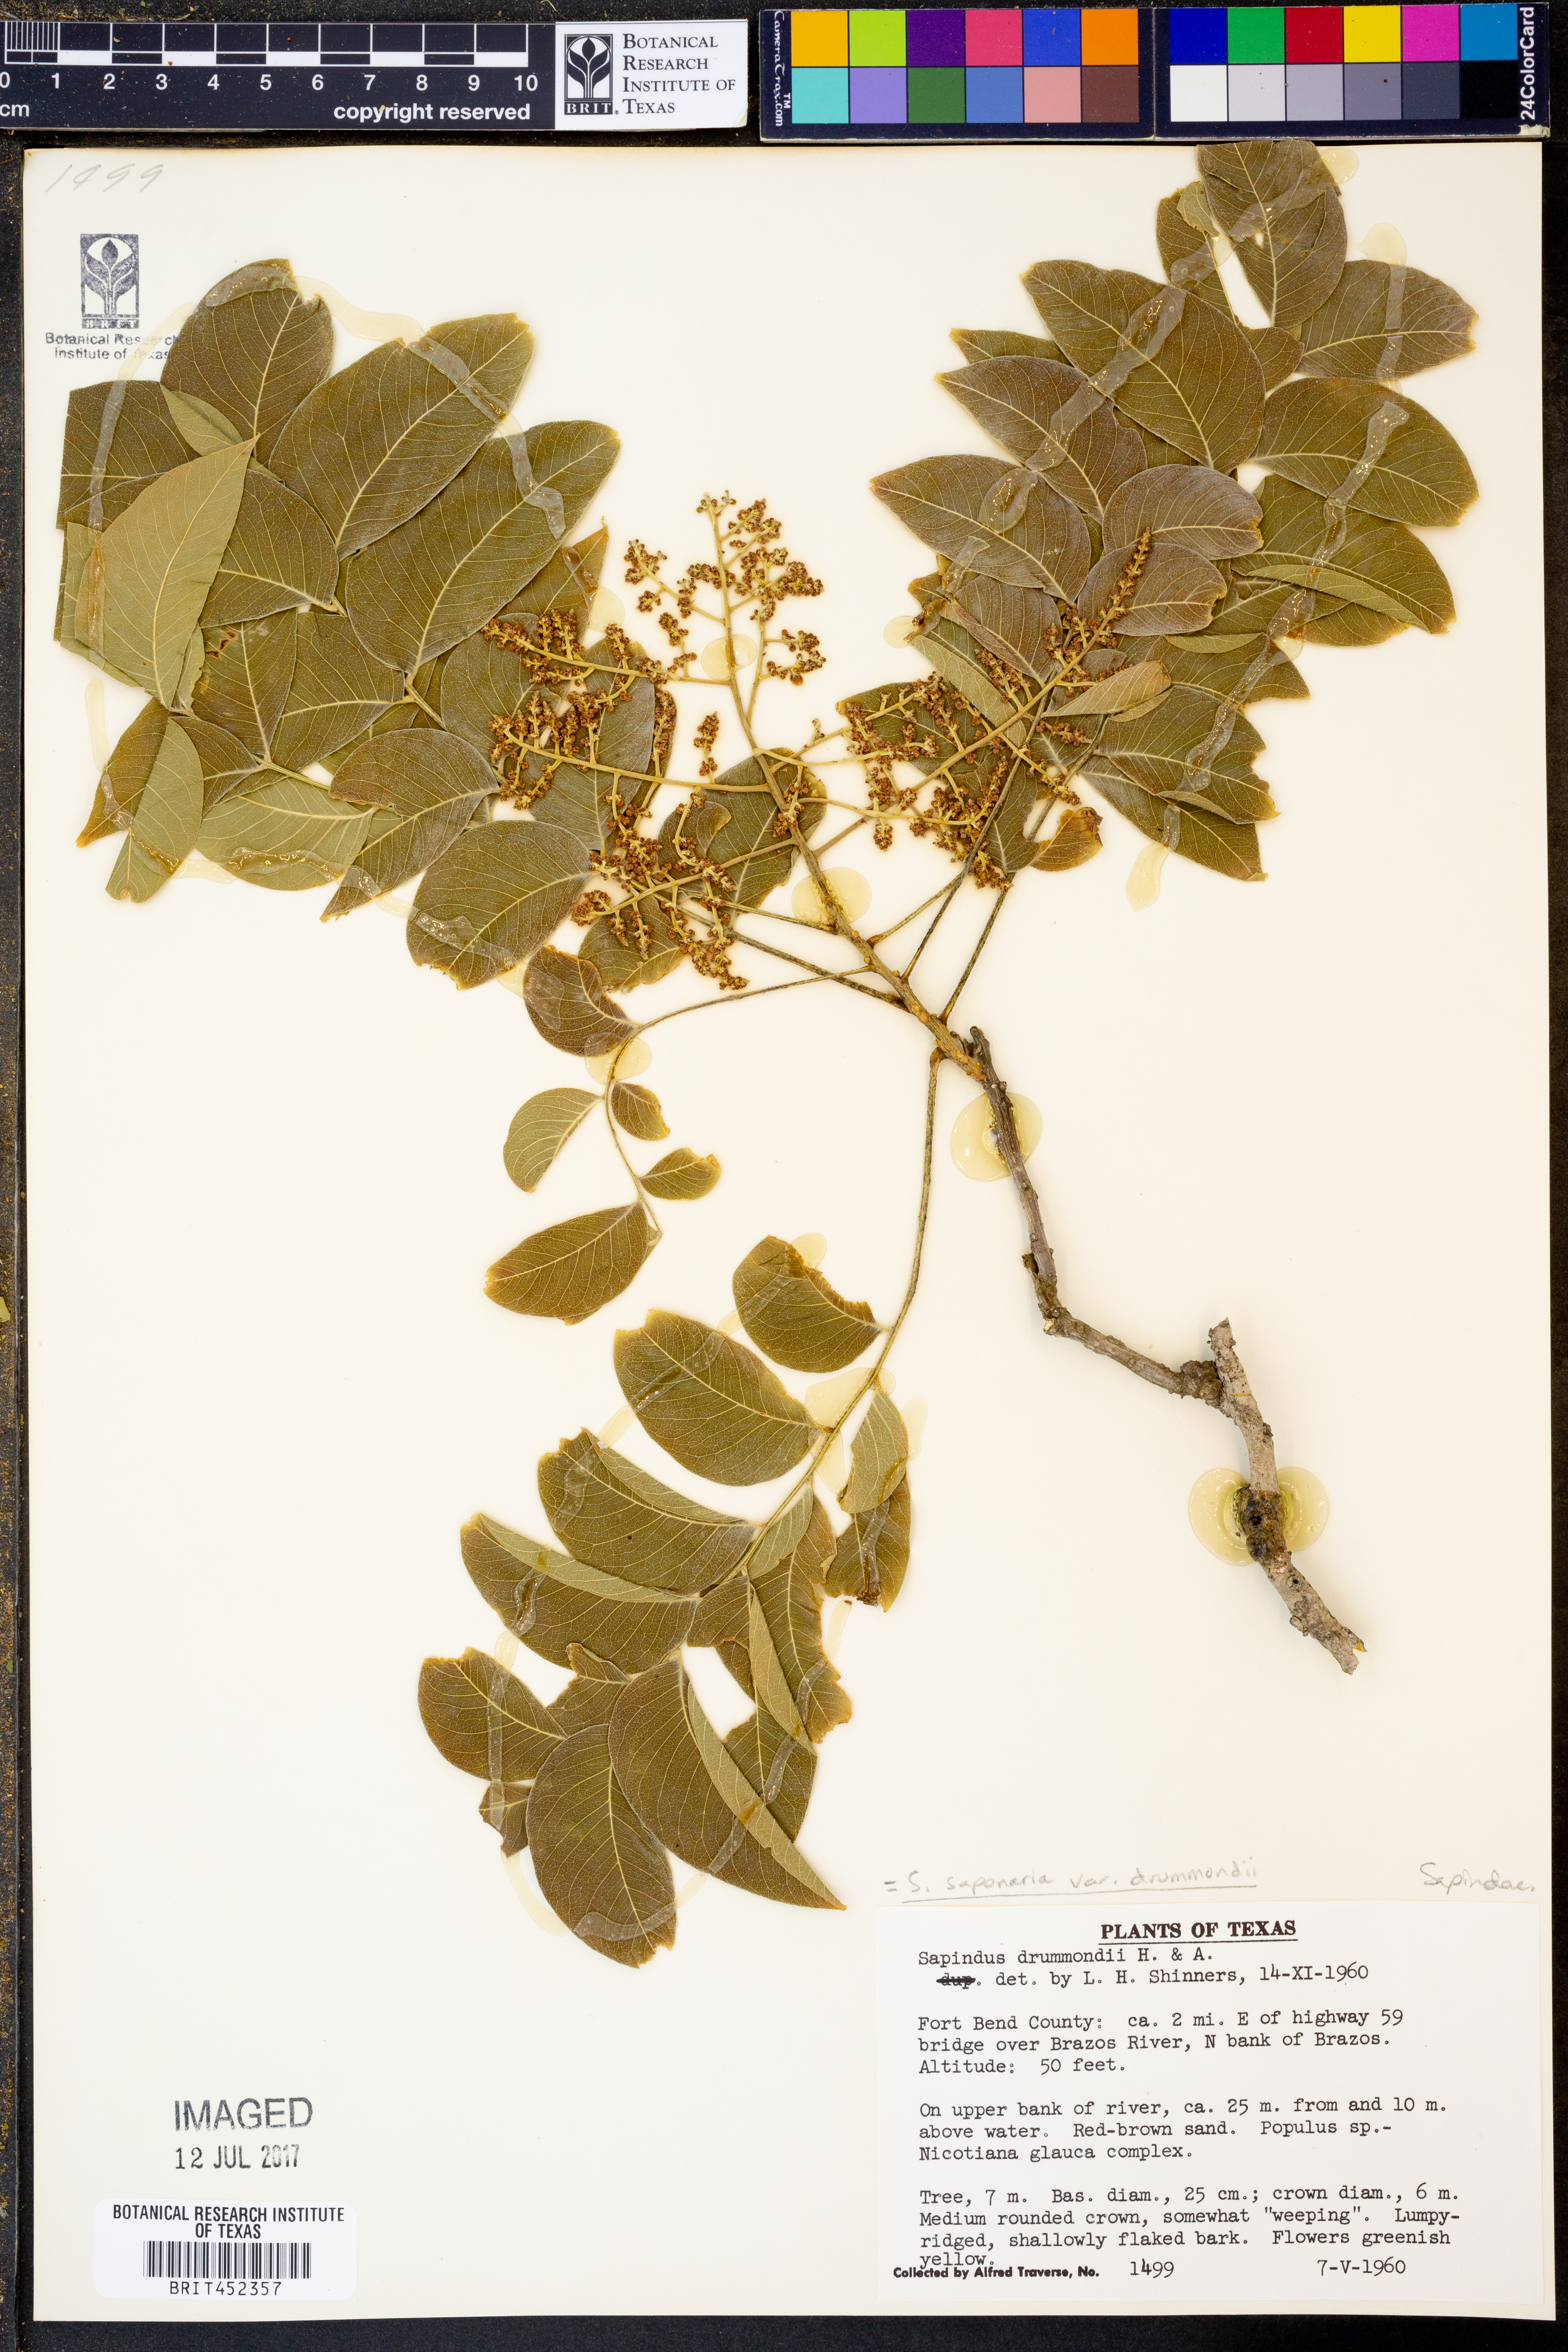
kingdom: Plantae
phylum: Tracheophyta
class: Magnoliopsida
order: Sapindales
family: Sapindaceae
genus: Sapindus
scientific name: Sapindus drummondii
